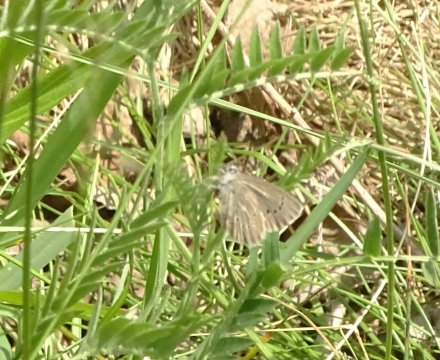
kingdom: Animalia
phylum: Arthropoda
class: Insecta
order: Lepidoptera
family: Lycaenidae
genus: Glaucopsyche
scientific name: Glaucopsyche lygdamus
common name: Silvery Blue
